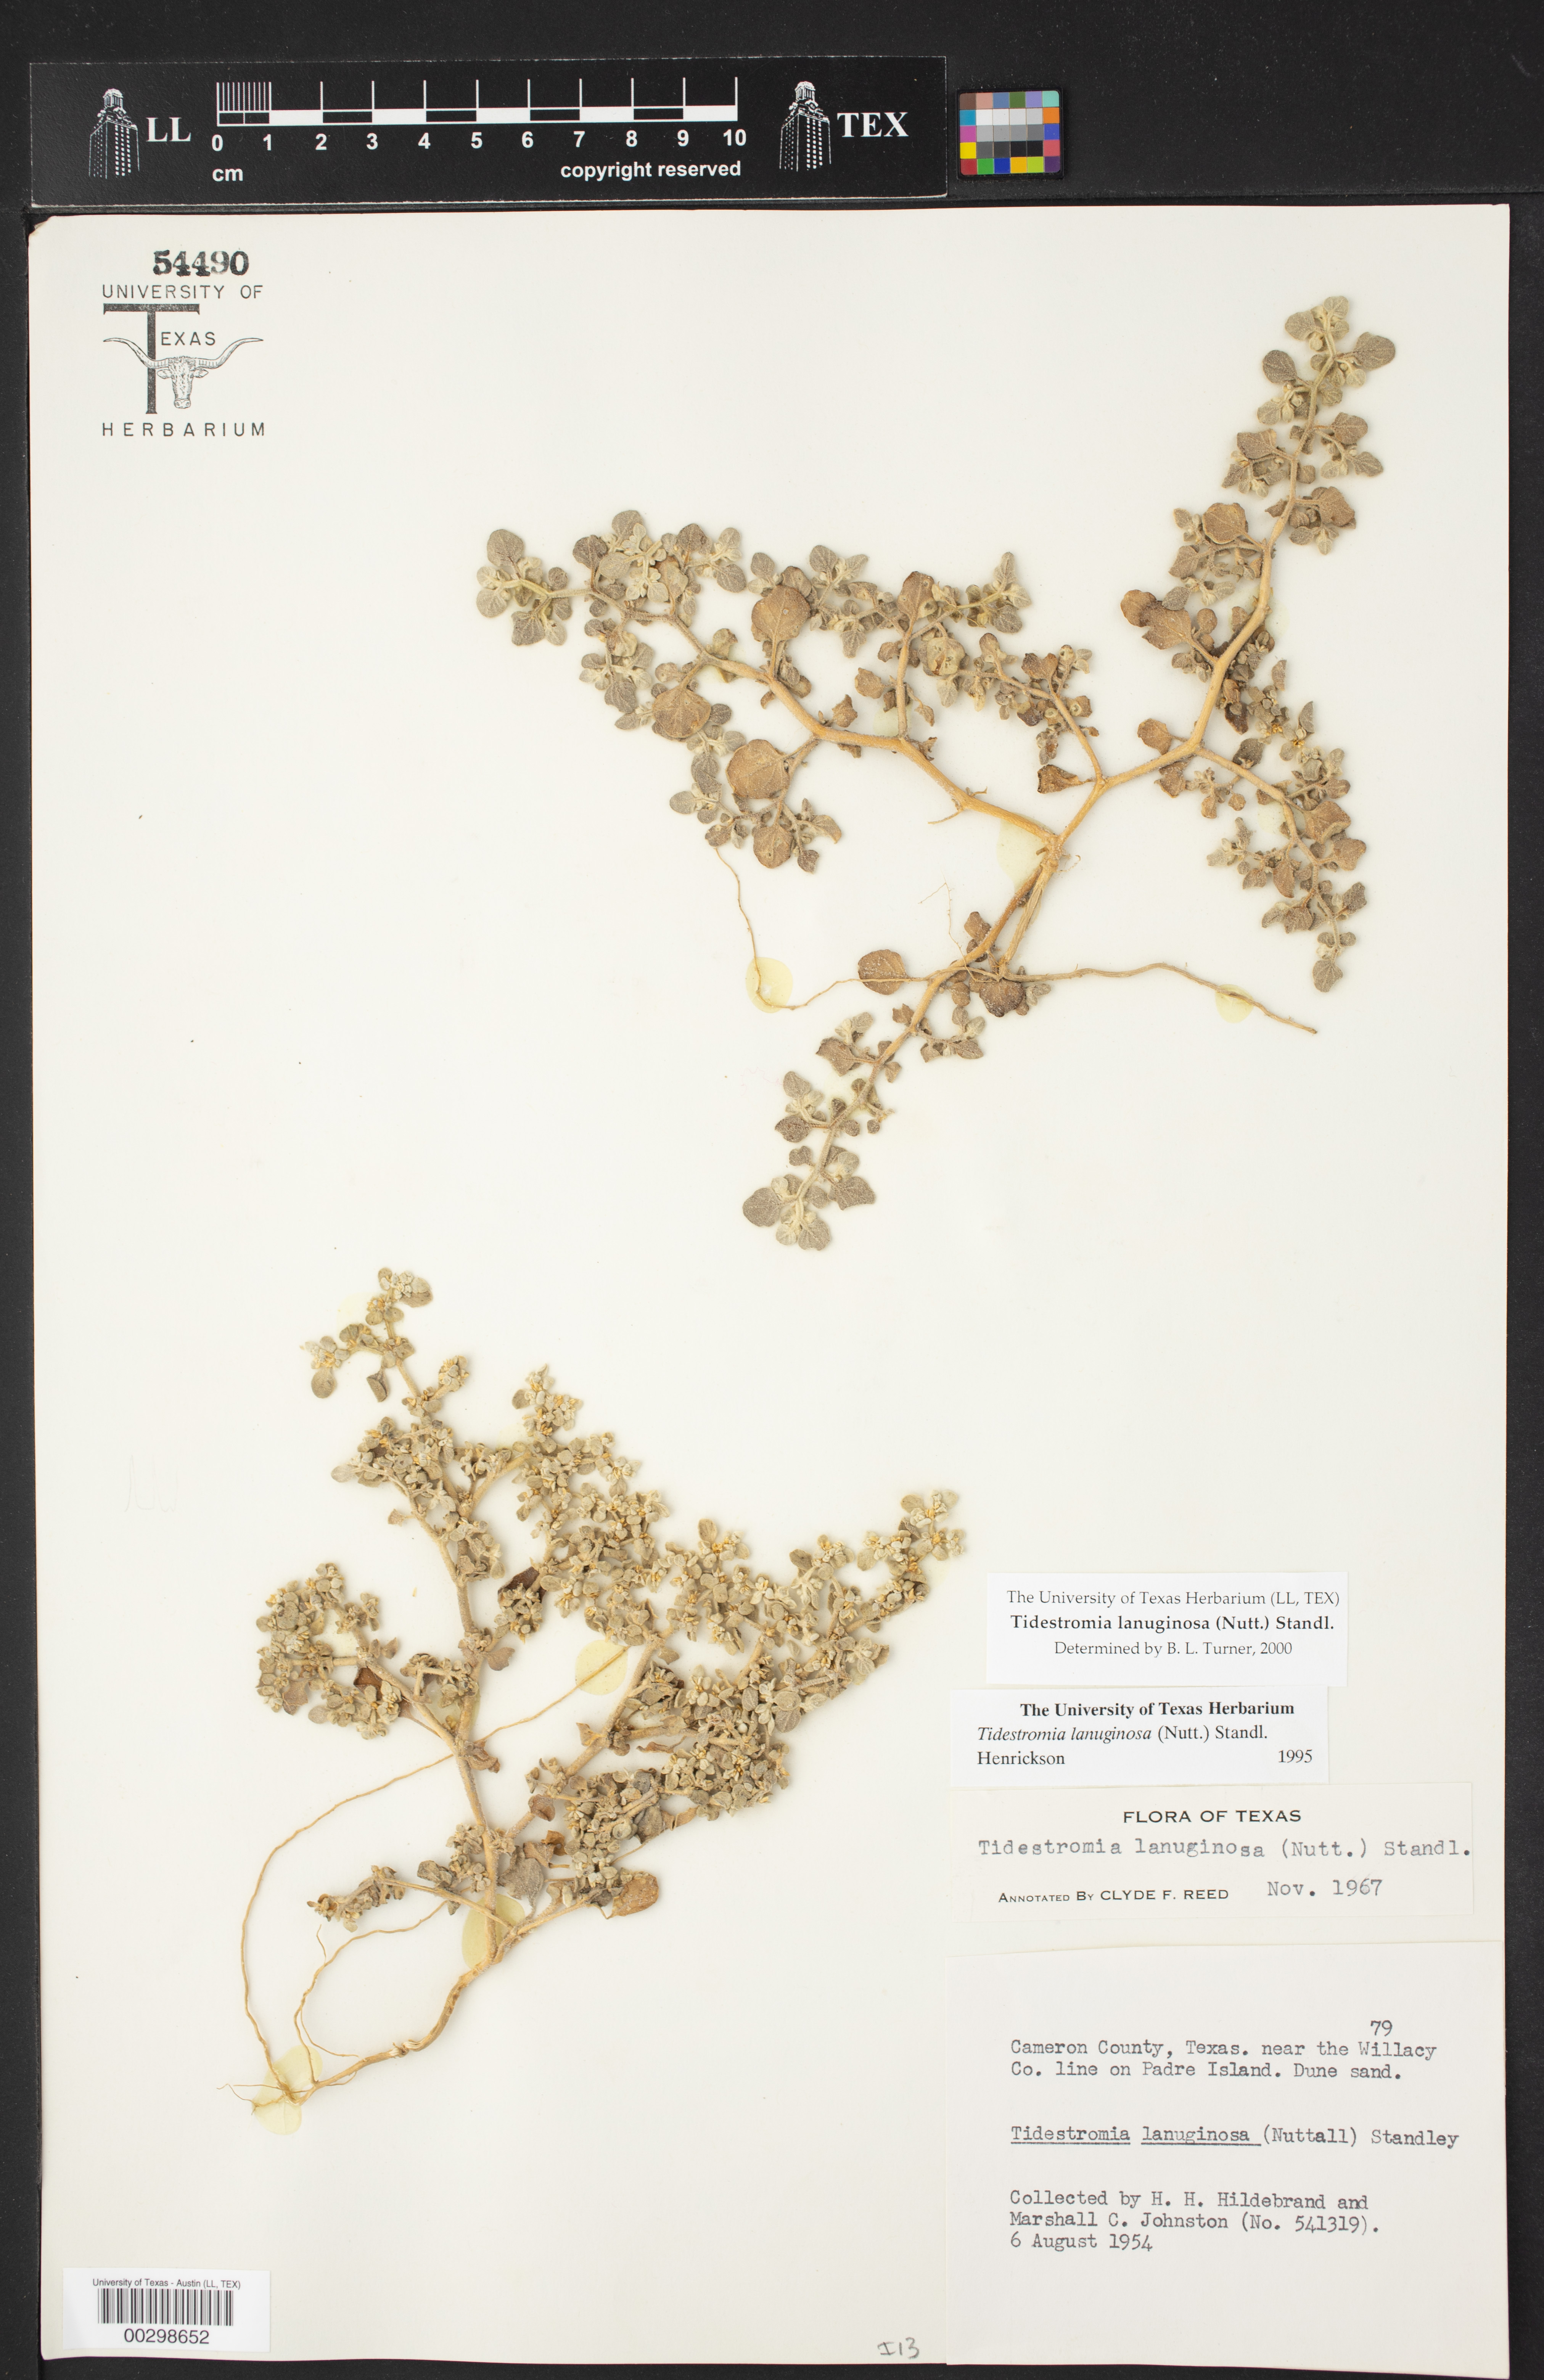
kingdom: Plantae
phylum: Tracheophyta
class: Magnoliopsida
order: Caryophyllales
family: Amaranthaceae
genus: Tidestromia
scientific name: Tidestromia lanuginosa
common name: Woolly tidestromia
